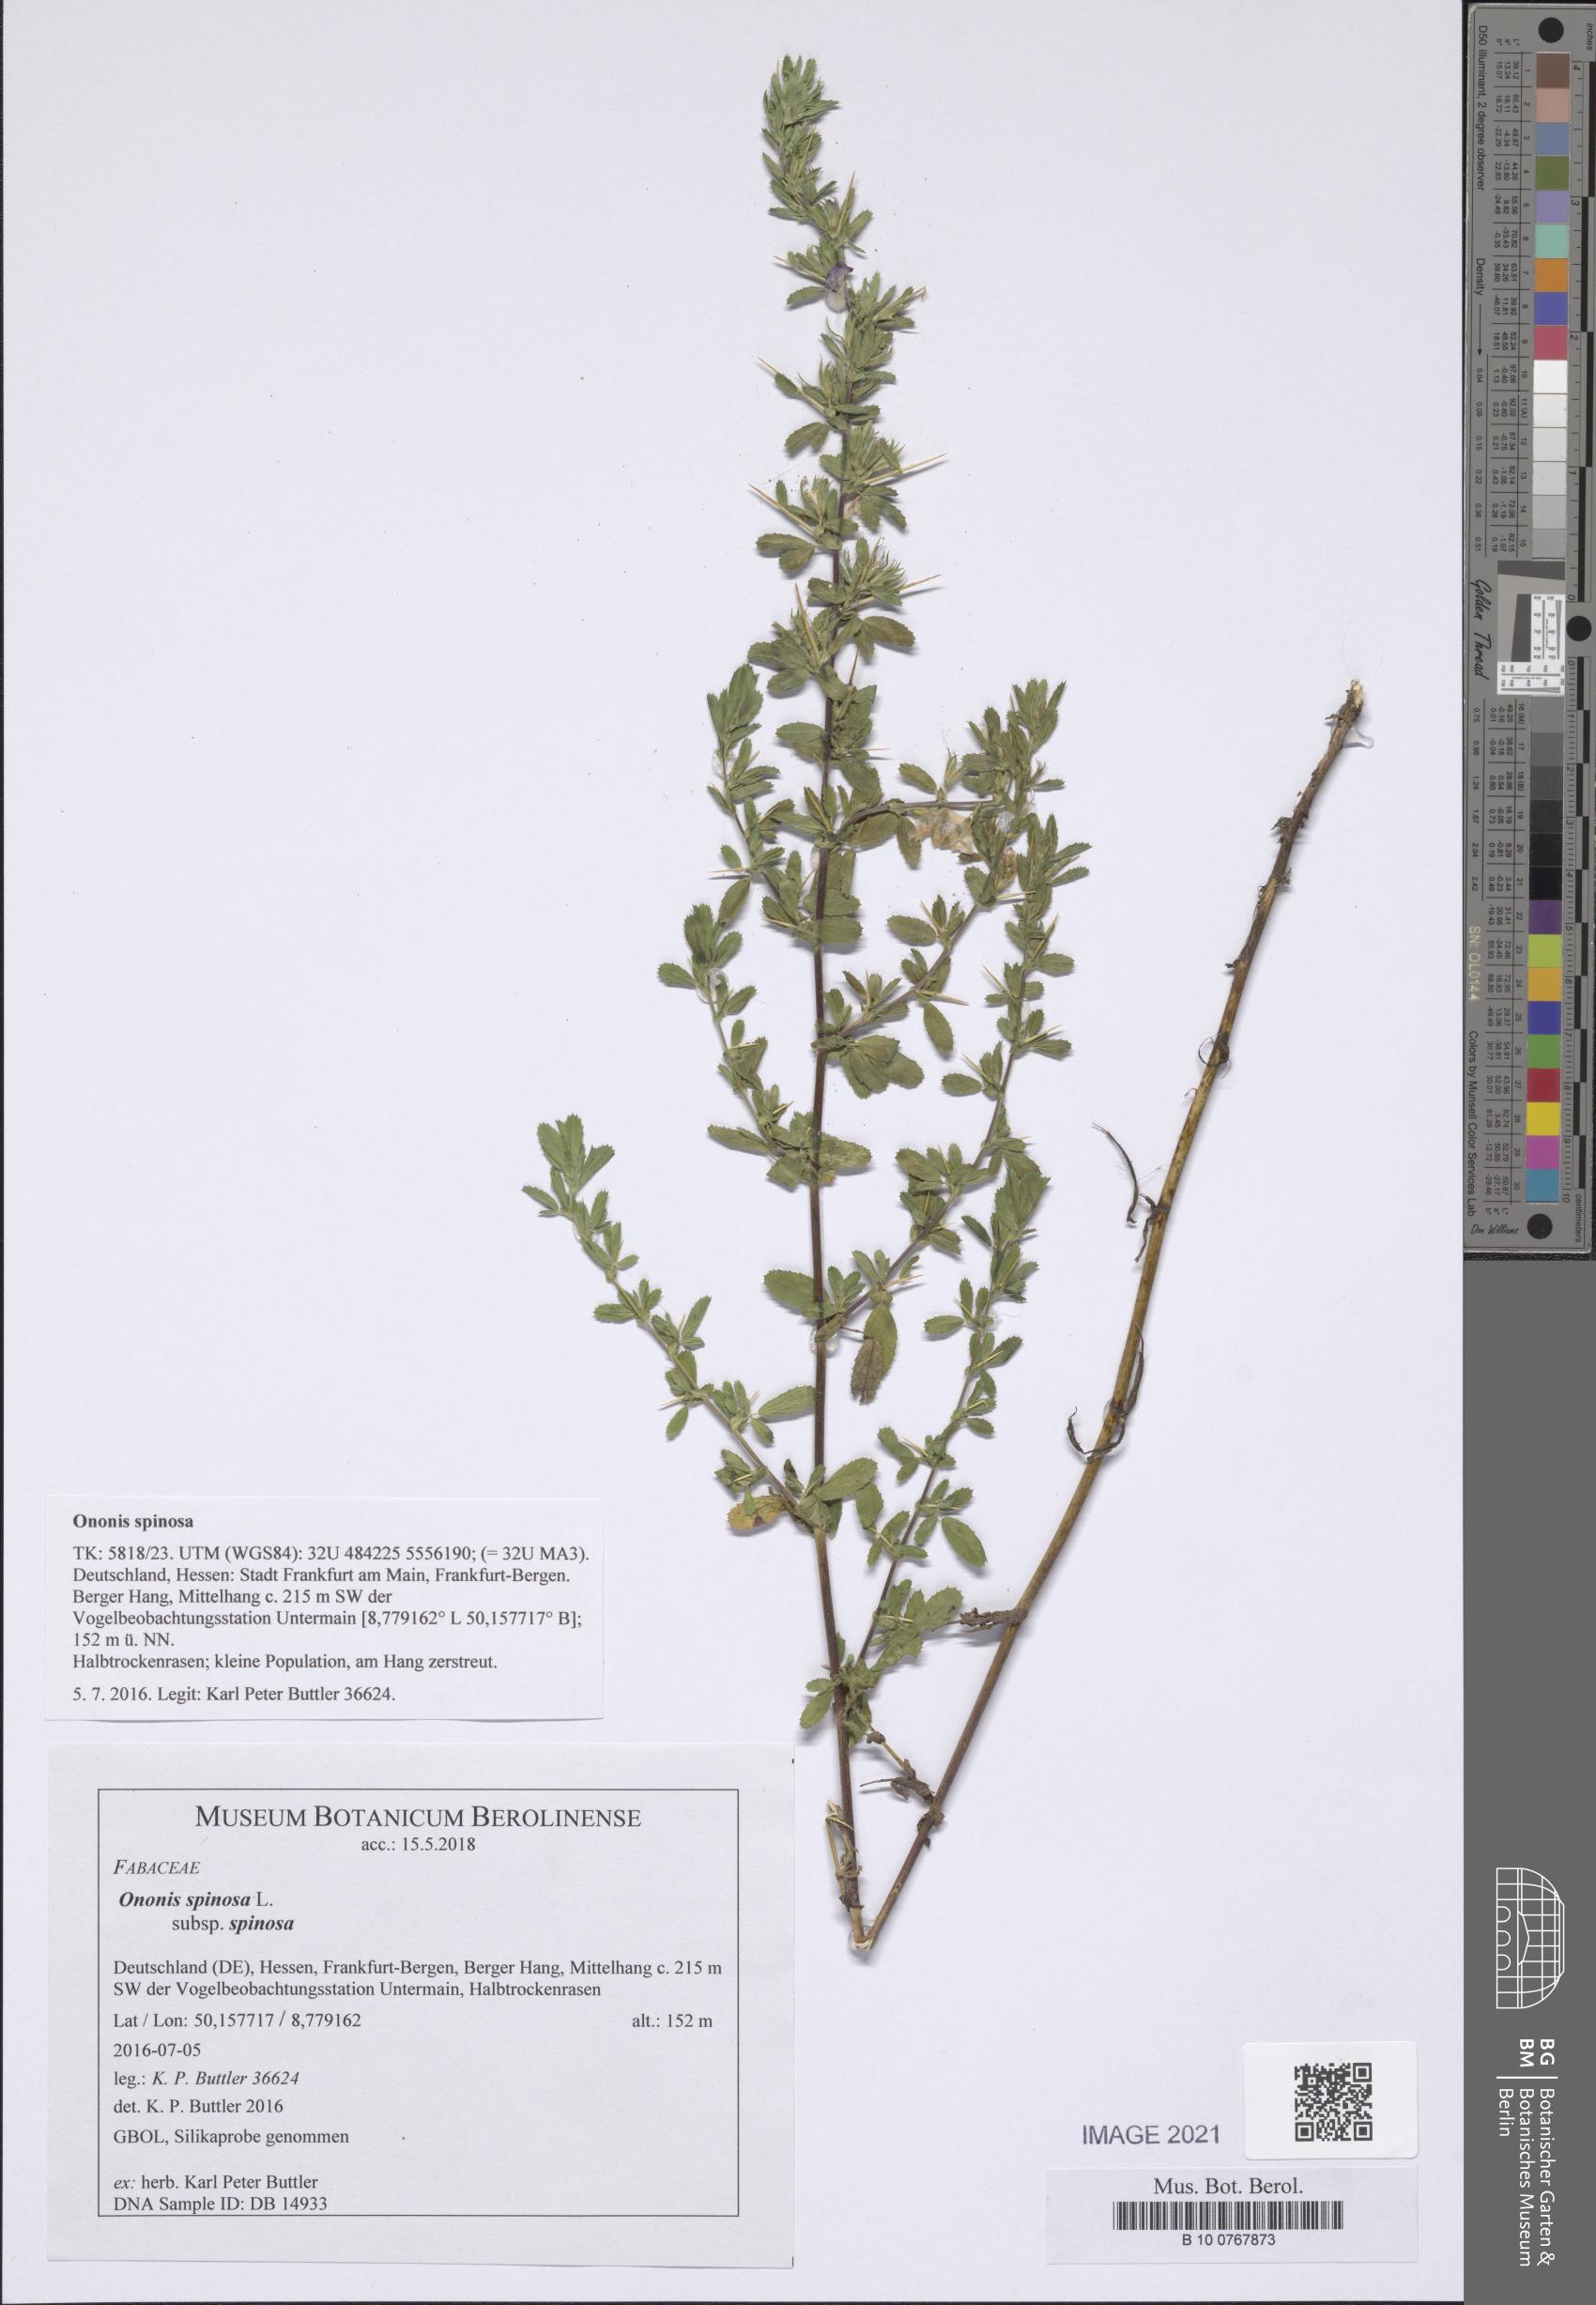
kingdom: Plantae
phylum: Tracheophyta
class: Magnoliopsida
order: Fabales
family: Fabaceae
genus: Ononis
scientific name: Ononis spinosa
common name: Spiny restharrow
